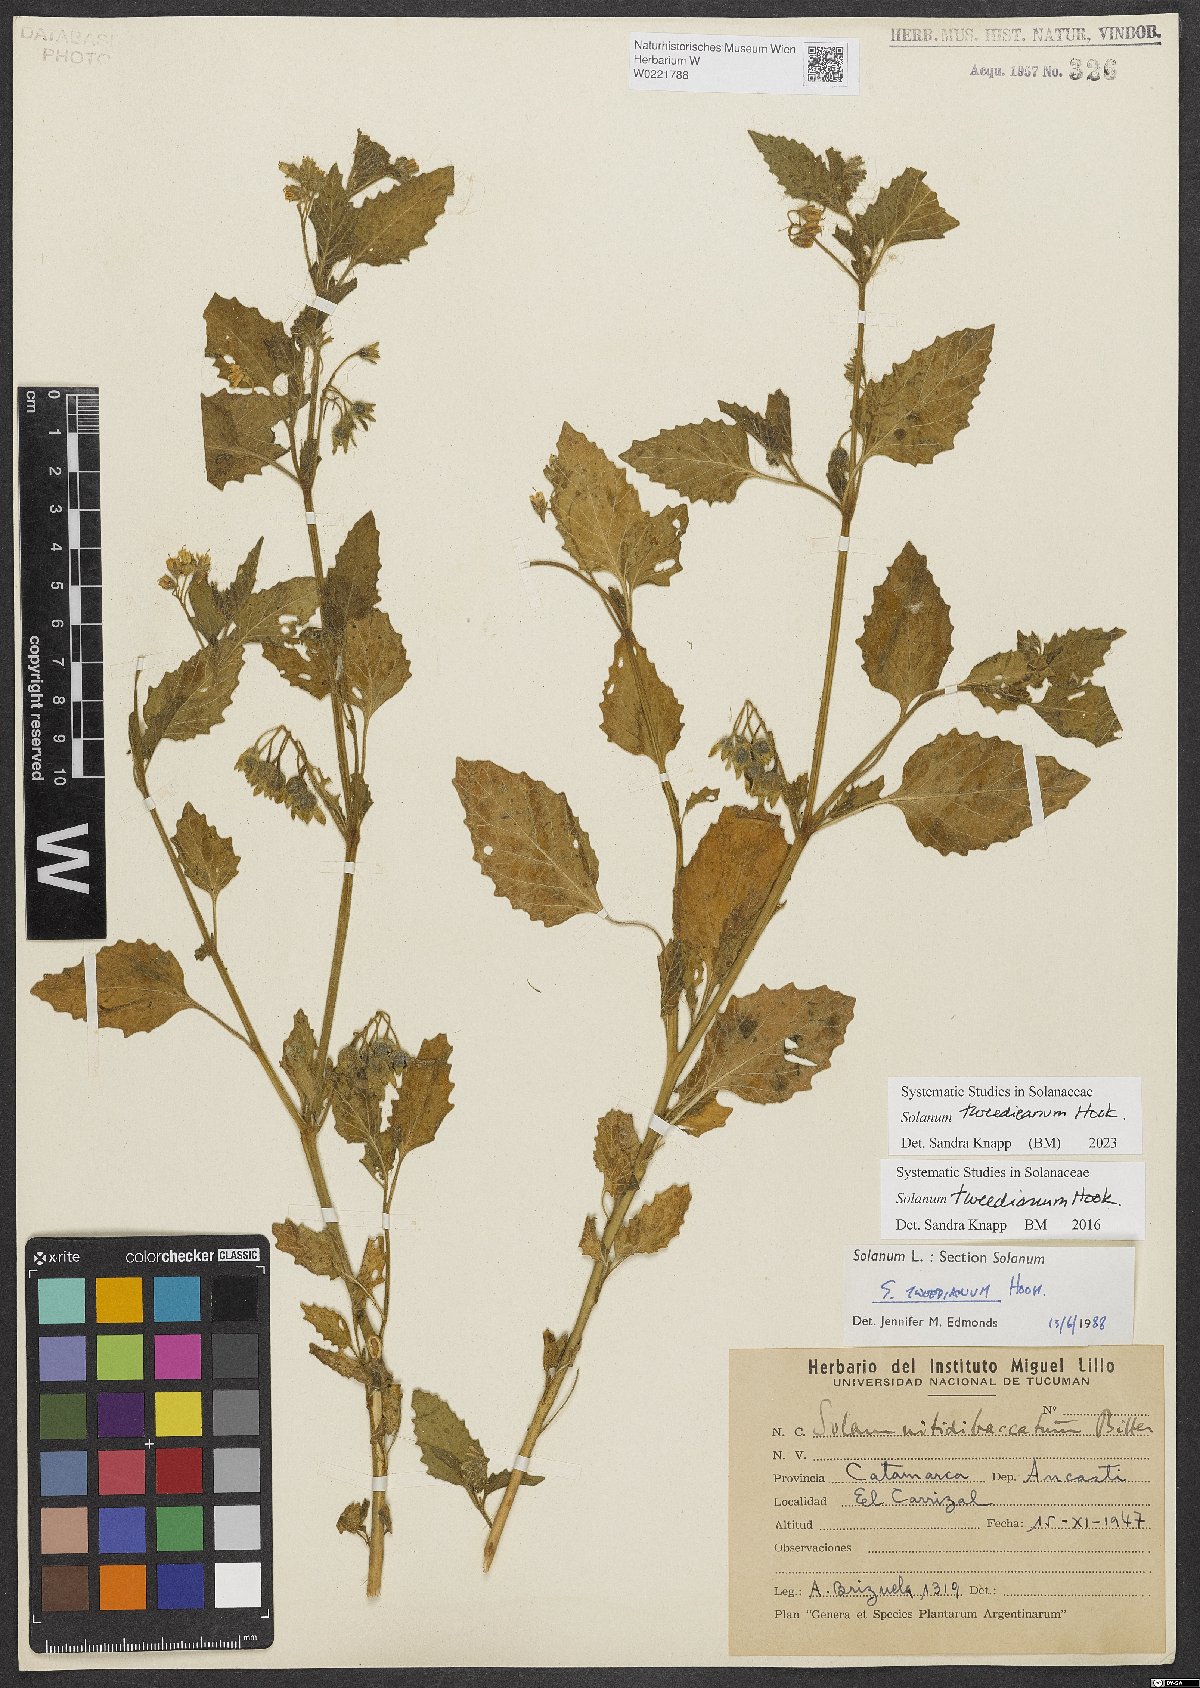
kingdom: Plantae
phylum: Tracheophyta
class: Magnoliopsida
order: Solanales
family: Solanaceae
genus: Solanum
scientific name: Solanum tweedieanum
